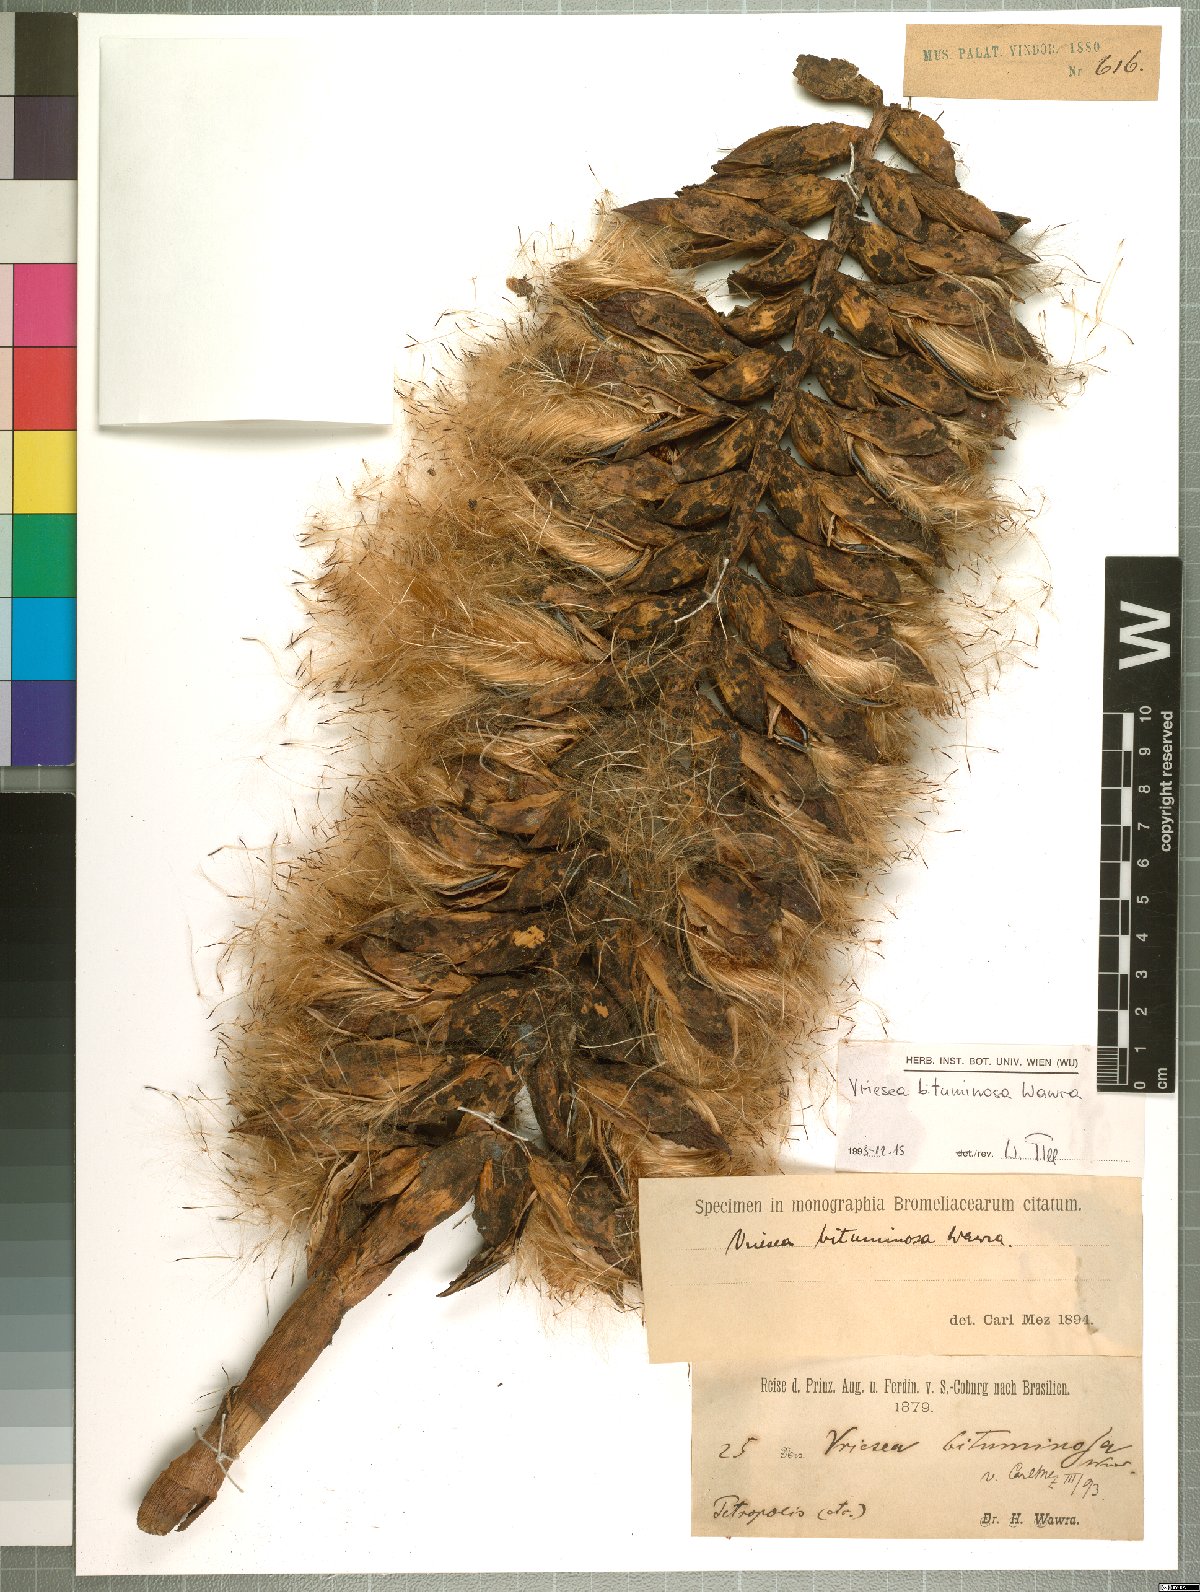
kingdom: Plantae
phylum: Tracheophyta
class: Liliopsida
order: Poales
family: Bromeliaceae
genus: Vriesea
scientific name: Vriesea bituminosa
